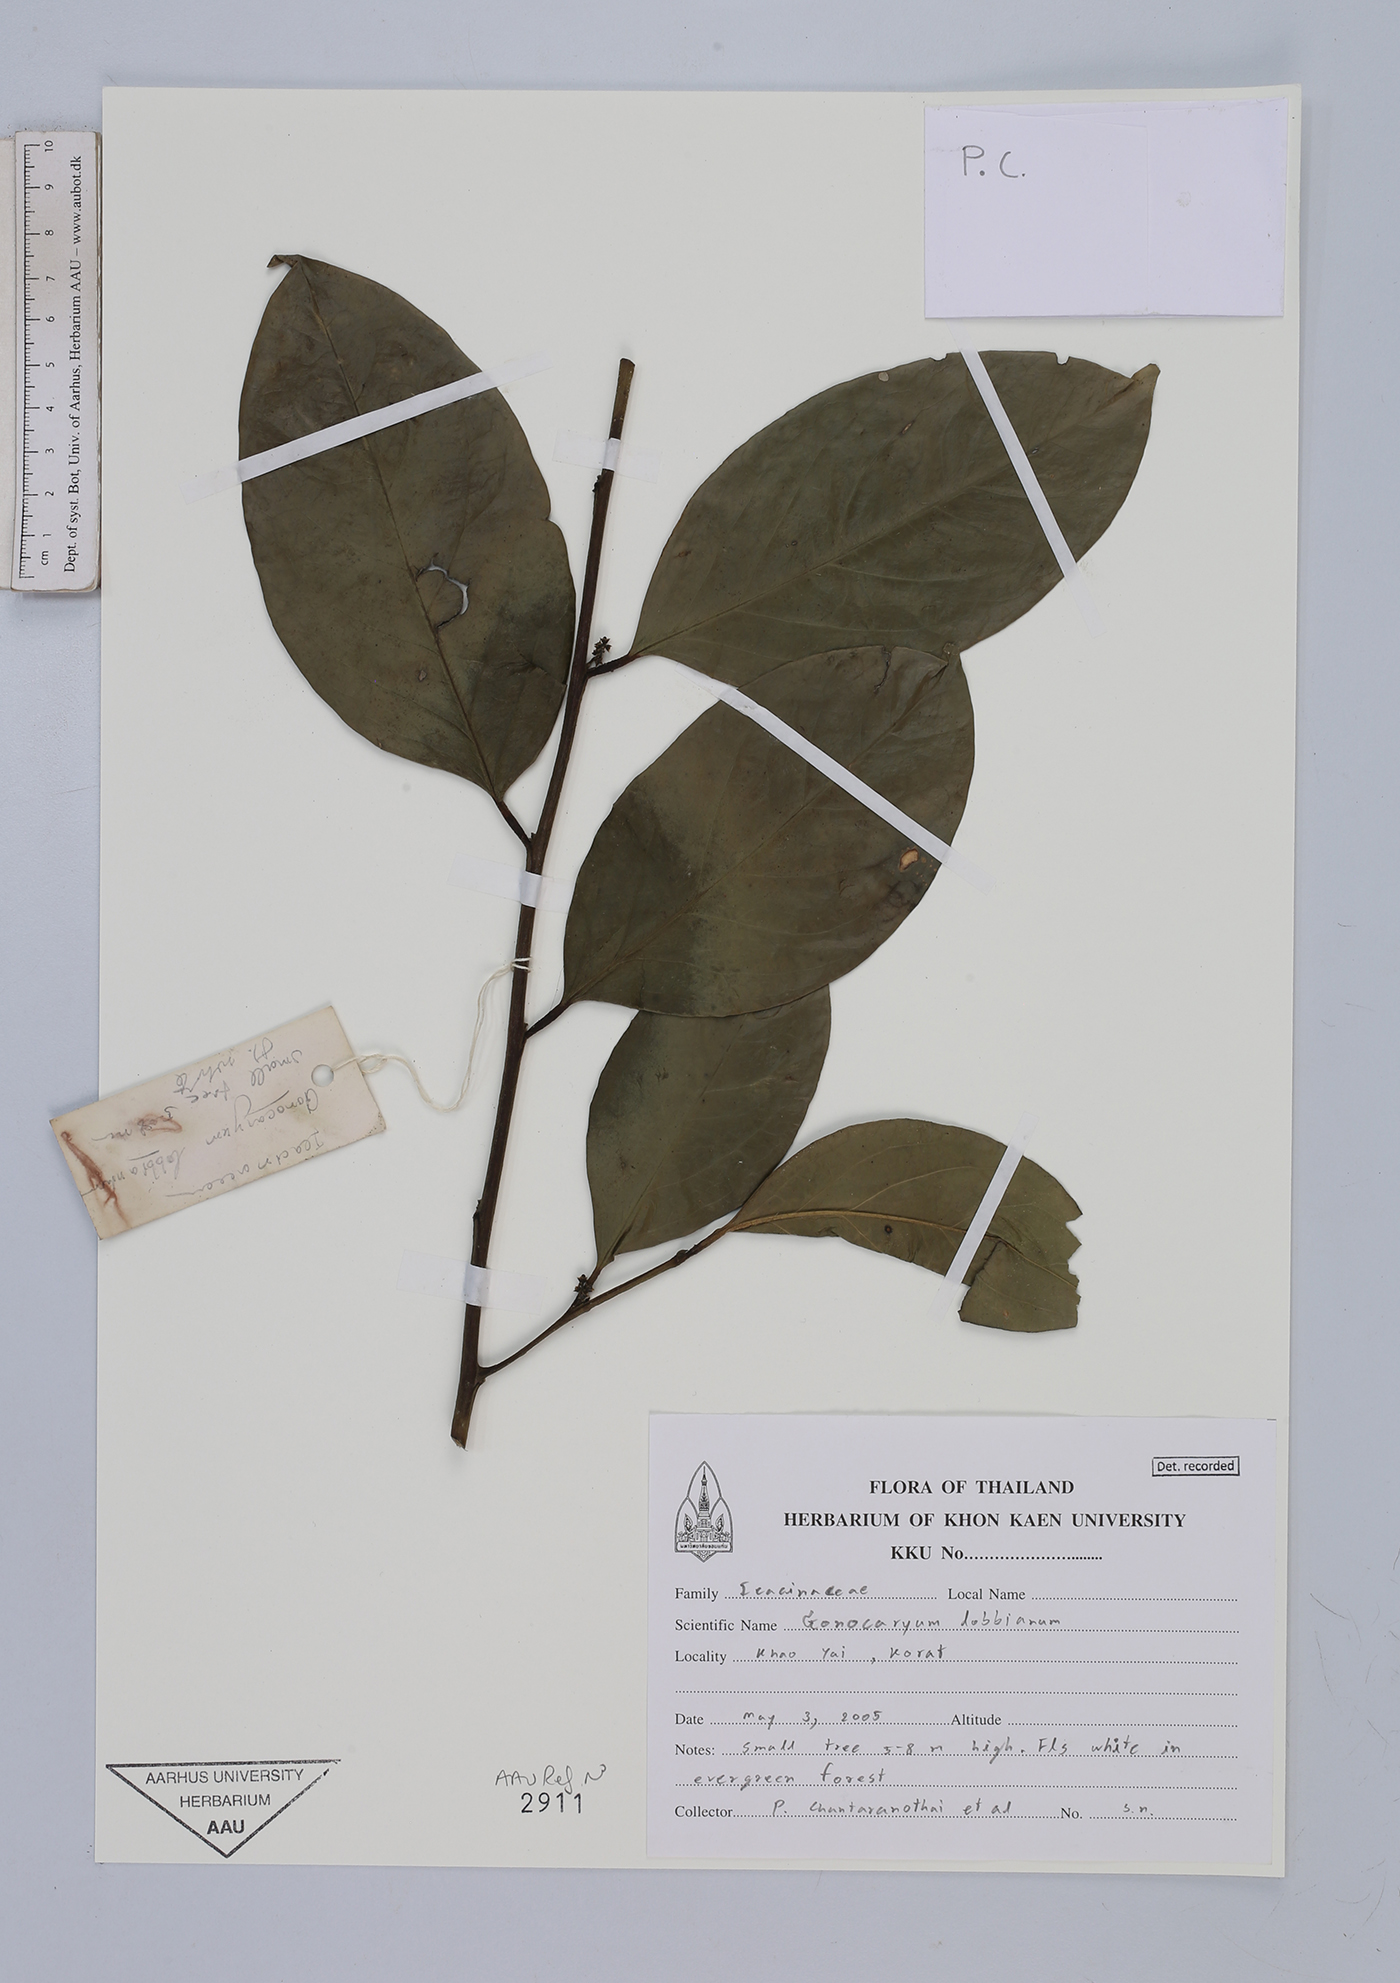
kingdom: Plantae
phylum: Tracheophyta
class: Magnoliopsida
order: Cardiopteridales
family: Cardiopteridaceae
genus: Gonocaryum
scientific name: Gonocaryum lobbianum
